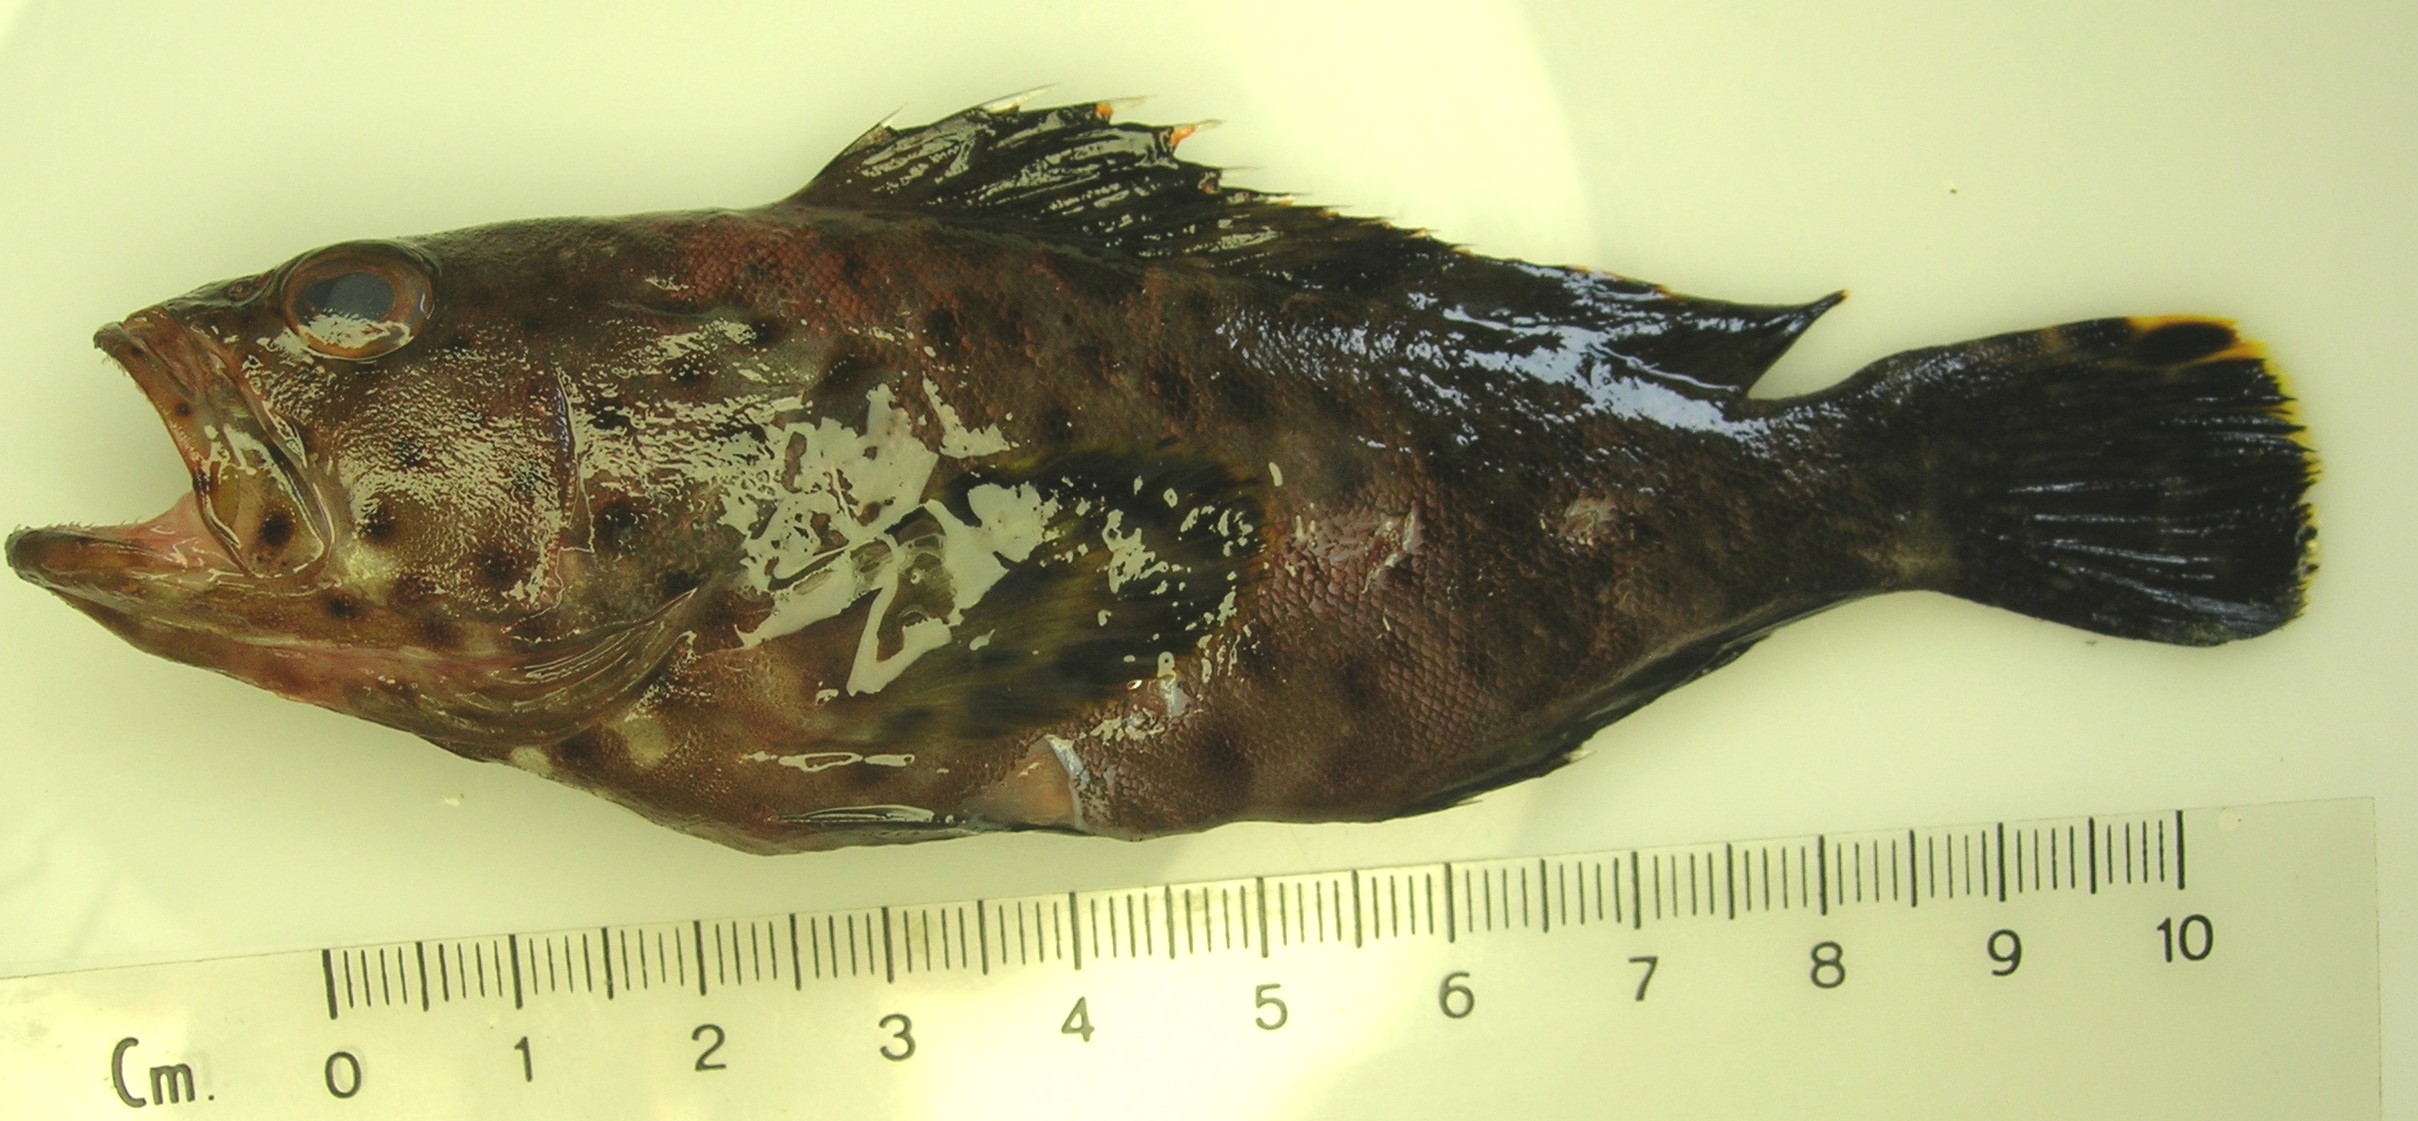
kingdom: Animalia
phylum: Chordata
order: Perciformes
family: Serranidae
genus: Epinephelus
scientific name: Epinephelus longispinis
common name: Longspine grouper
